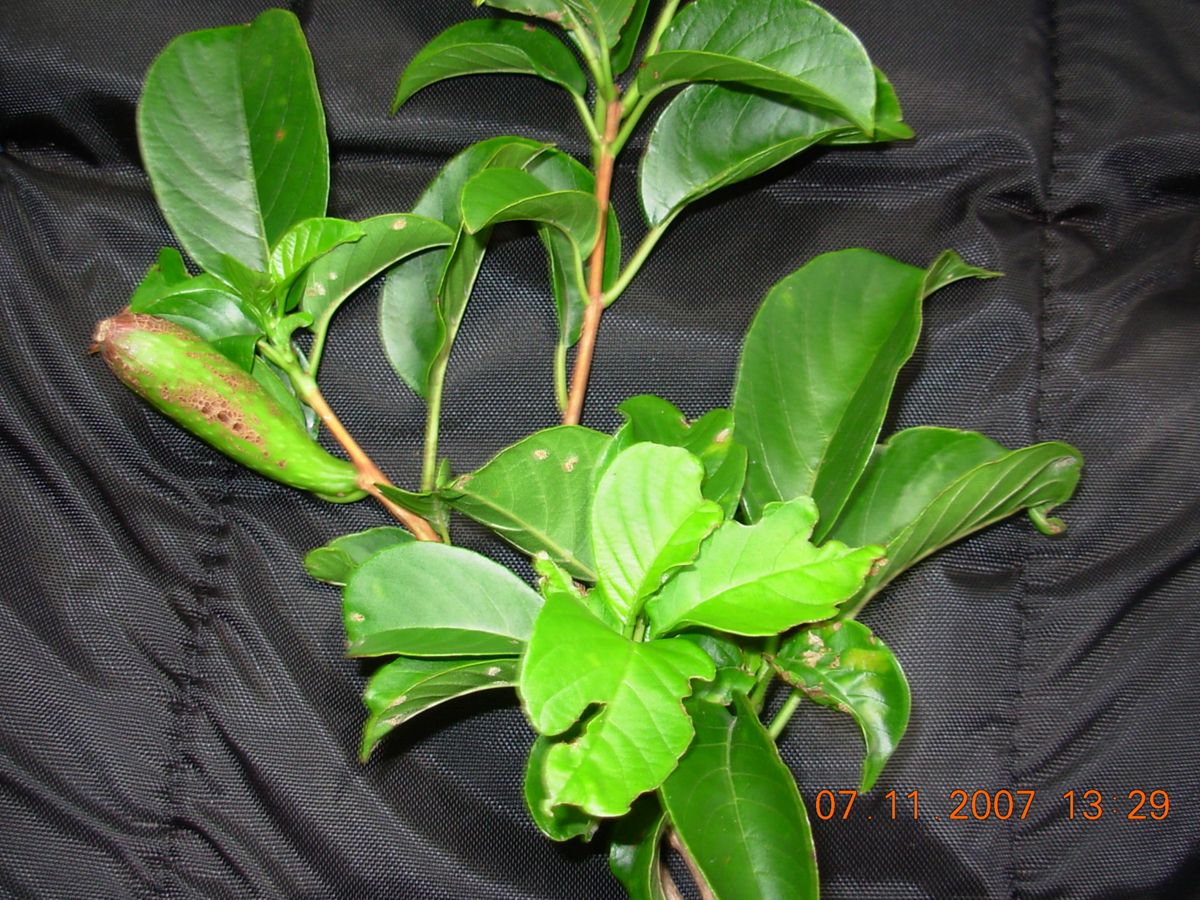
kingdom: Plantae
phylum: Tracheophyta
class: Magnoliopsida
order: Myrtales
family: Onagraceae
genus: Hauya
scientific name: Hauya elegans
